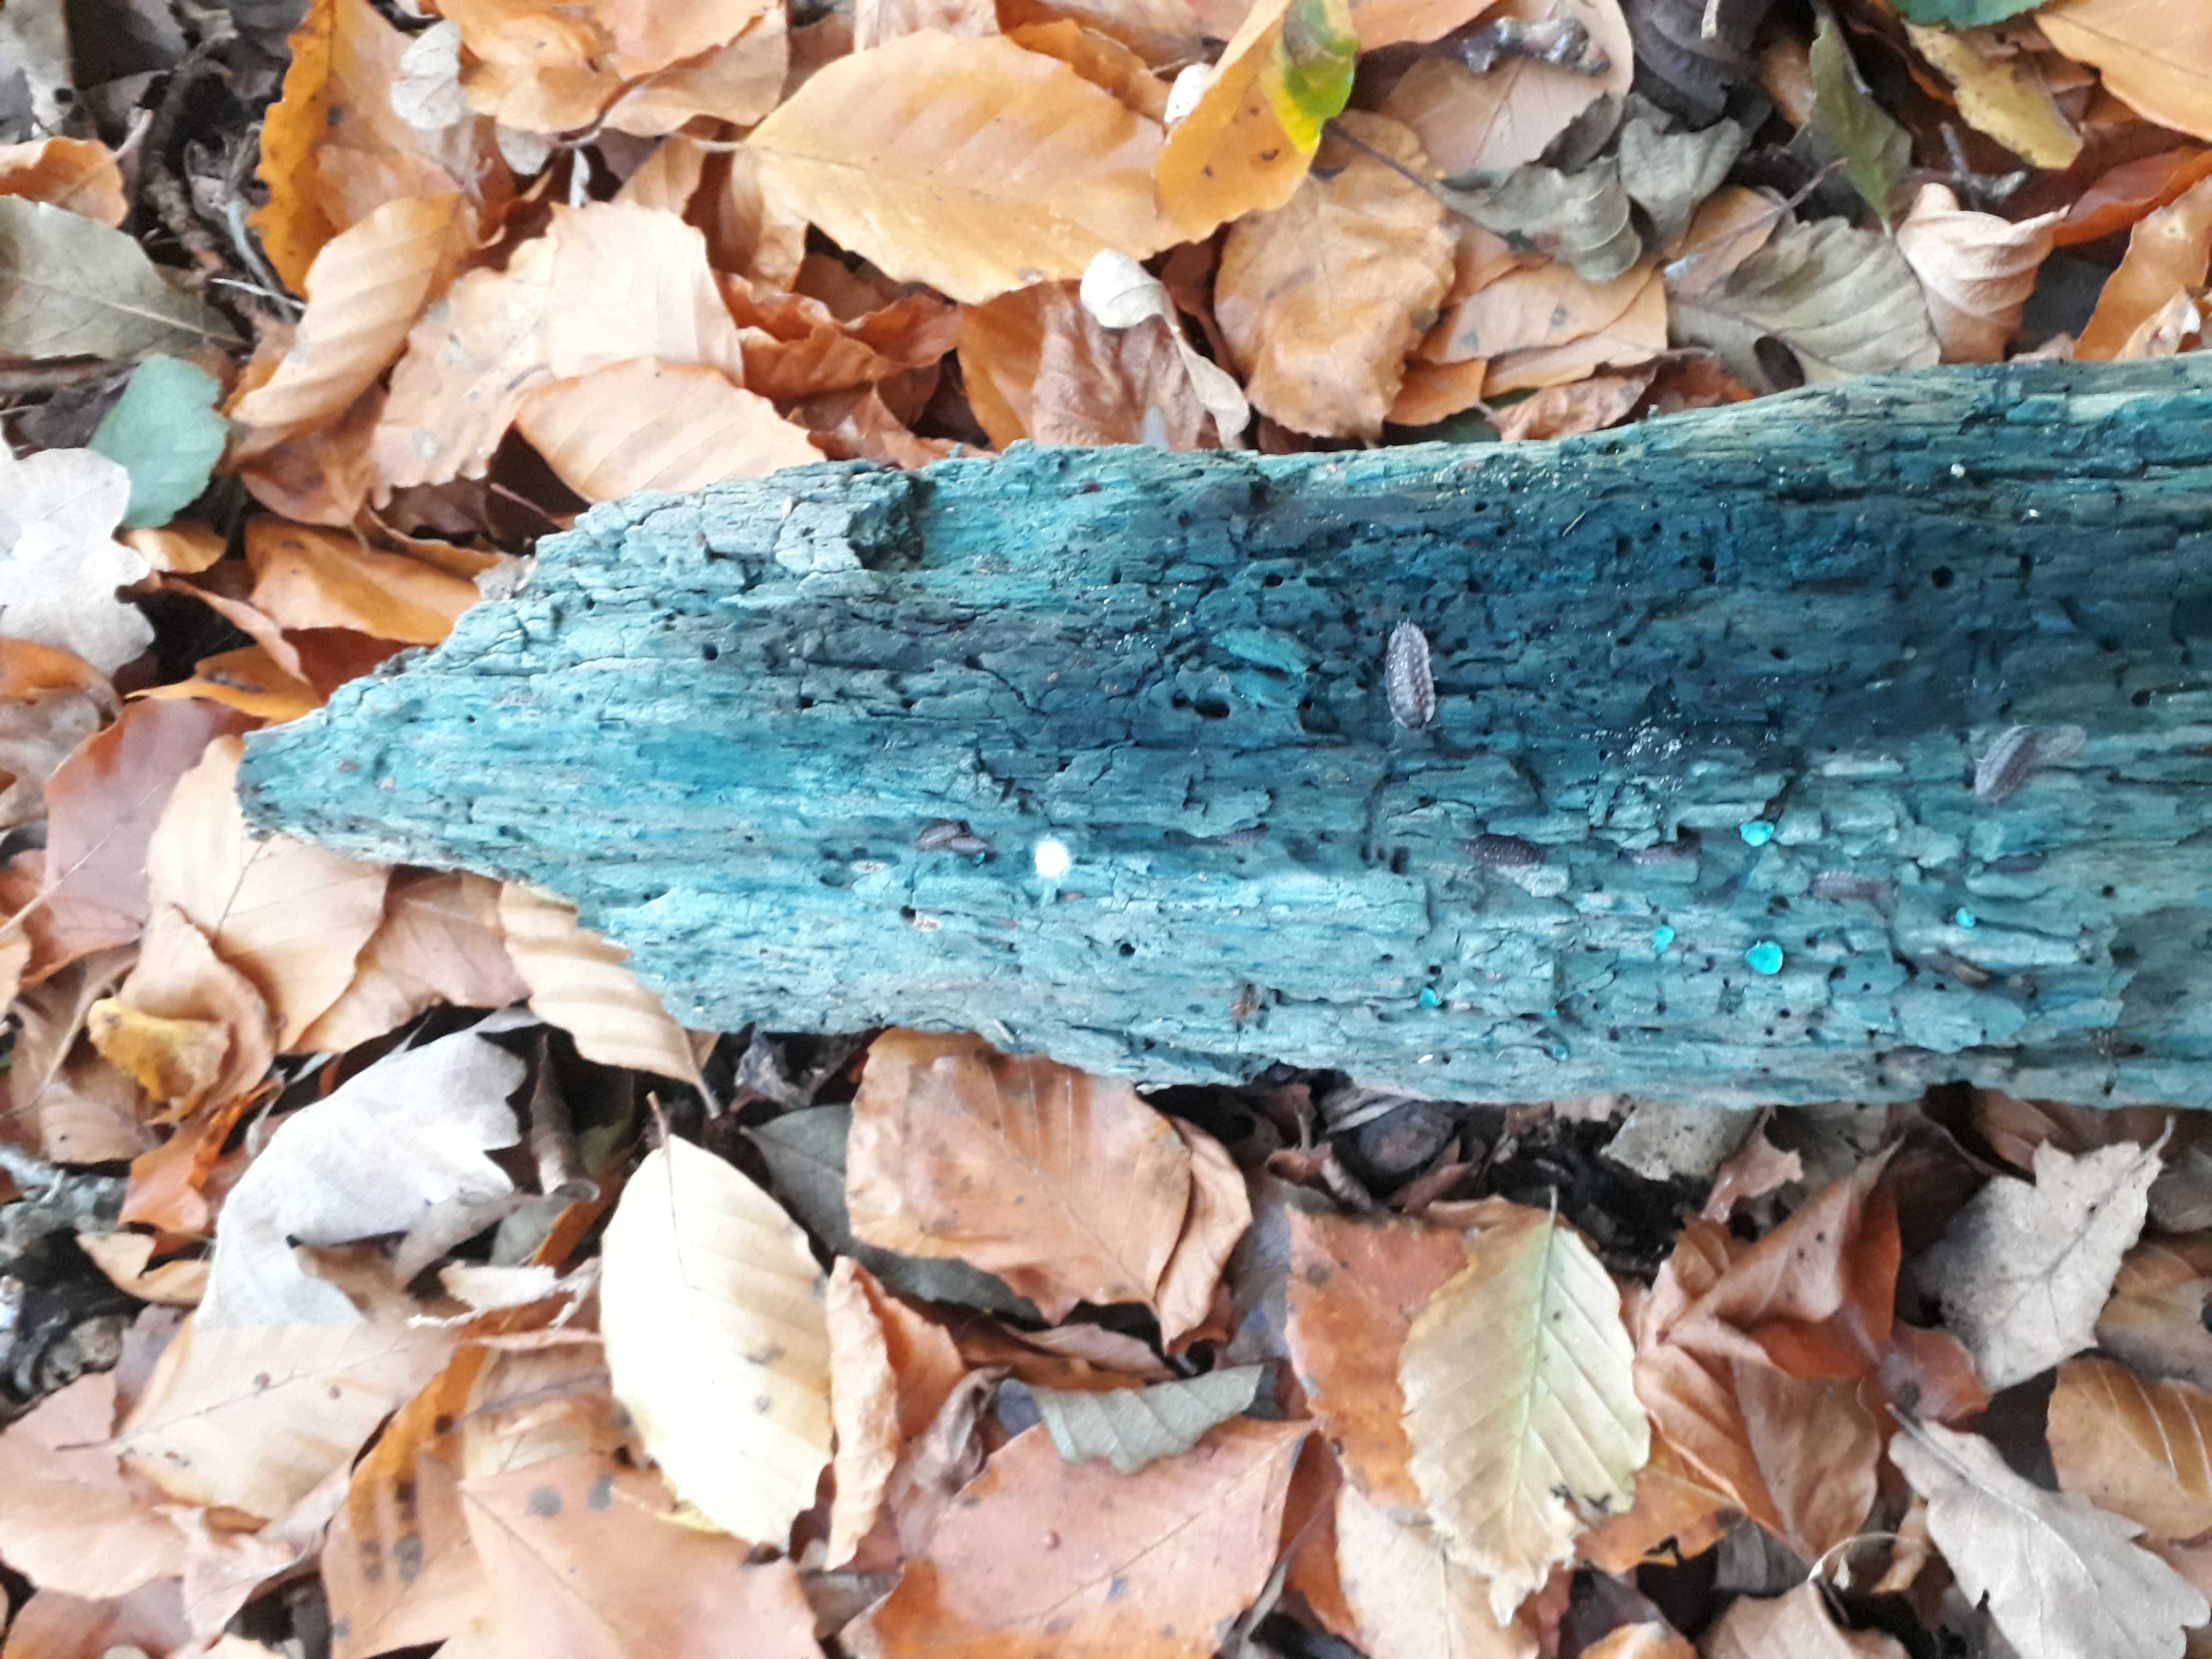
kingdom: Fungi
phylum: Ascomycota
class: Leotiomycetes
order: Helotiales
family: Chlorociboriaceae
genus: Chlorociboria
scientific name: Chlorociboria aeruginascens
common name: almindelig grønskive
